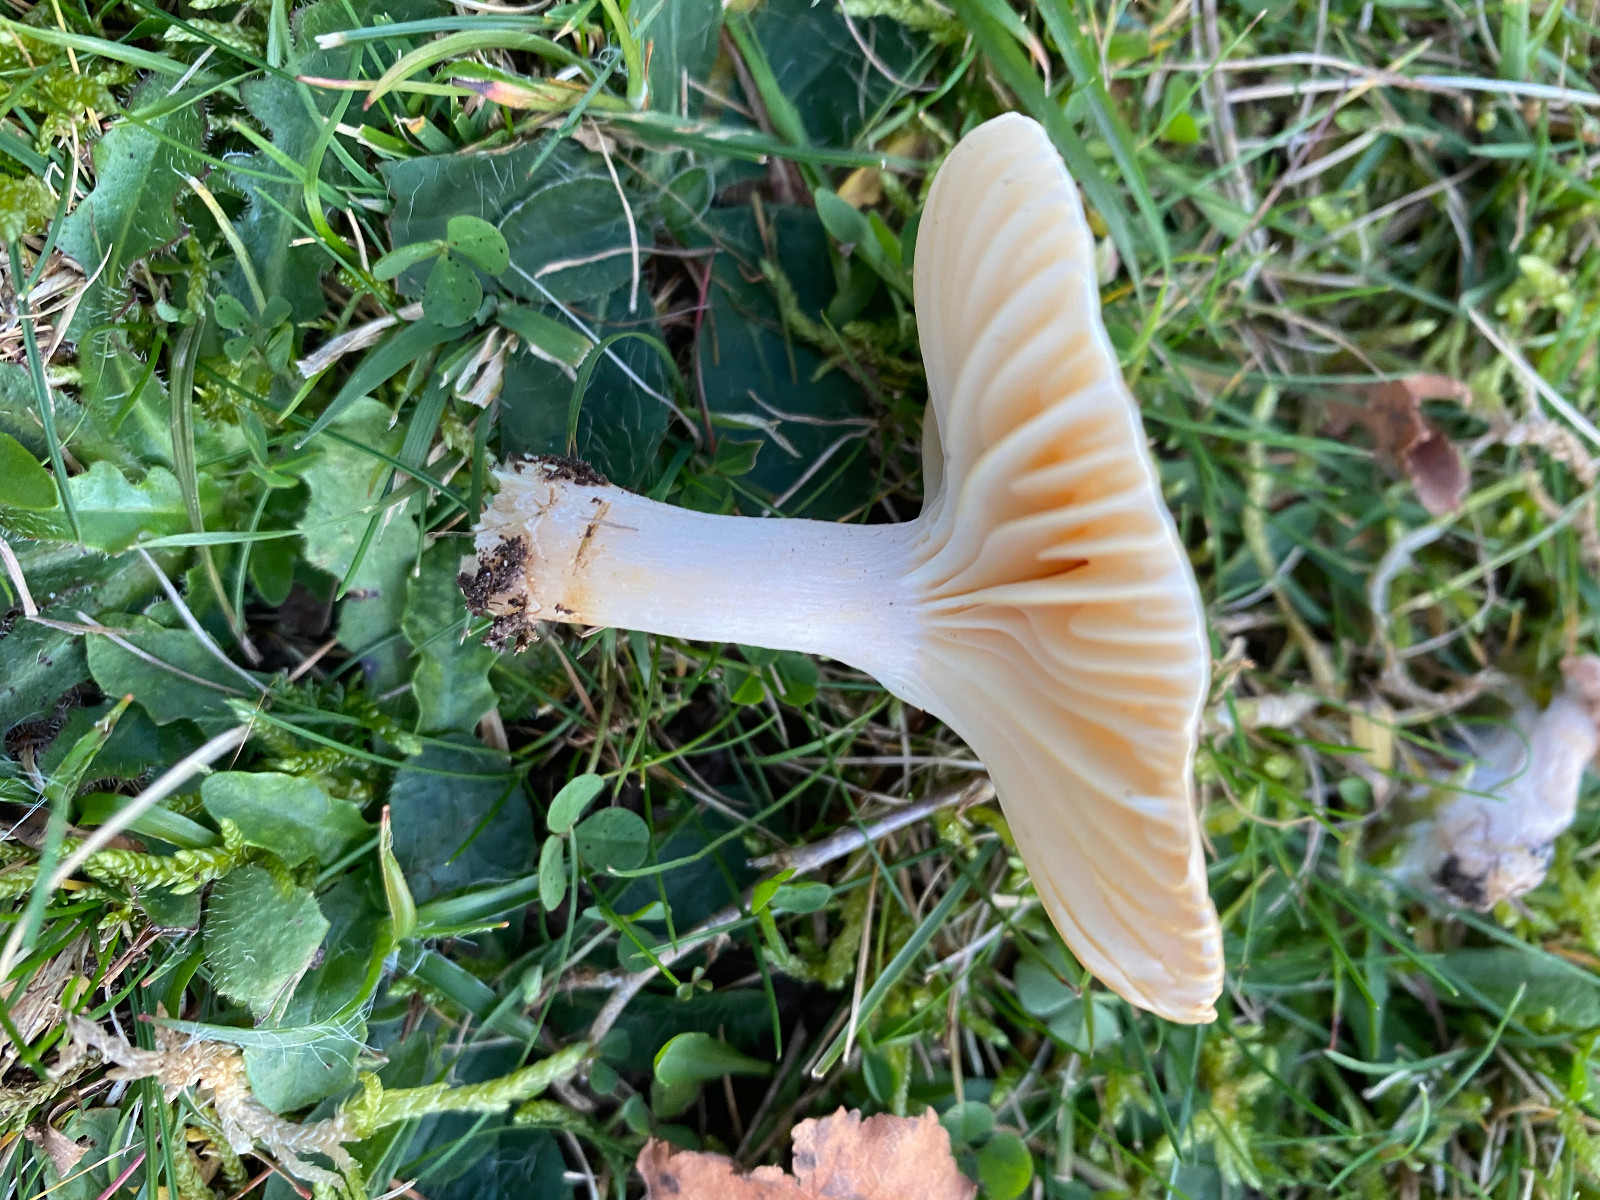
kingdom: Fungi
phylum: Basidiomycota
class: Agaricomycetes
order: Agaricales
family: Hygrophoraceae
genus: Cuphophyllus
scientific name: Cuphophyllus pratensis
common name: eng-vokshat
